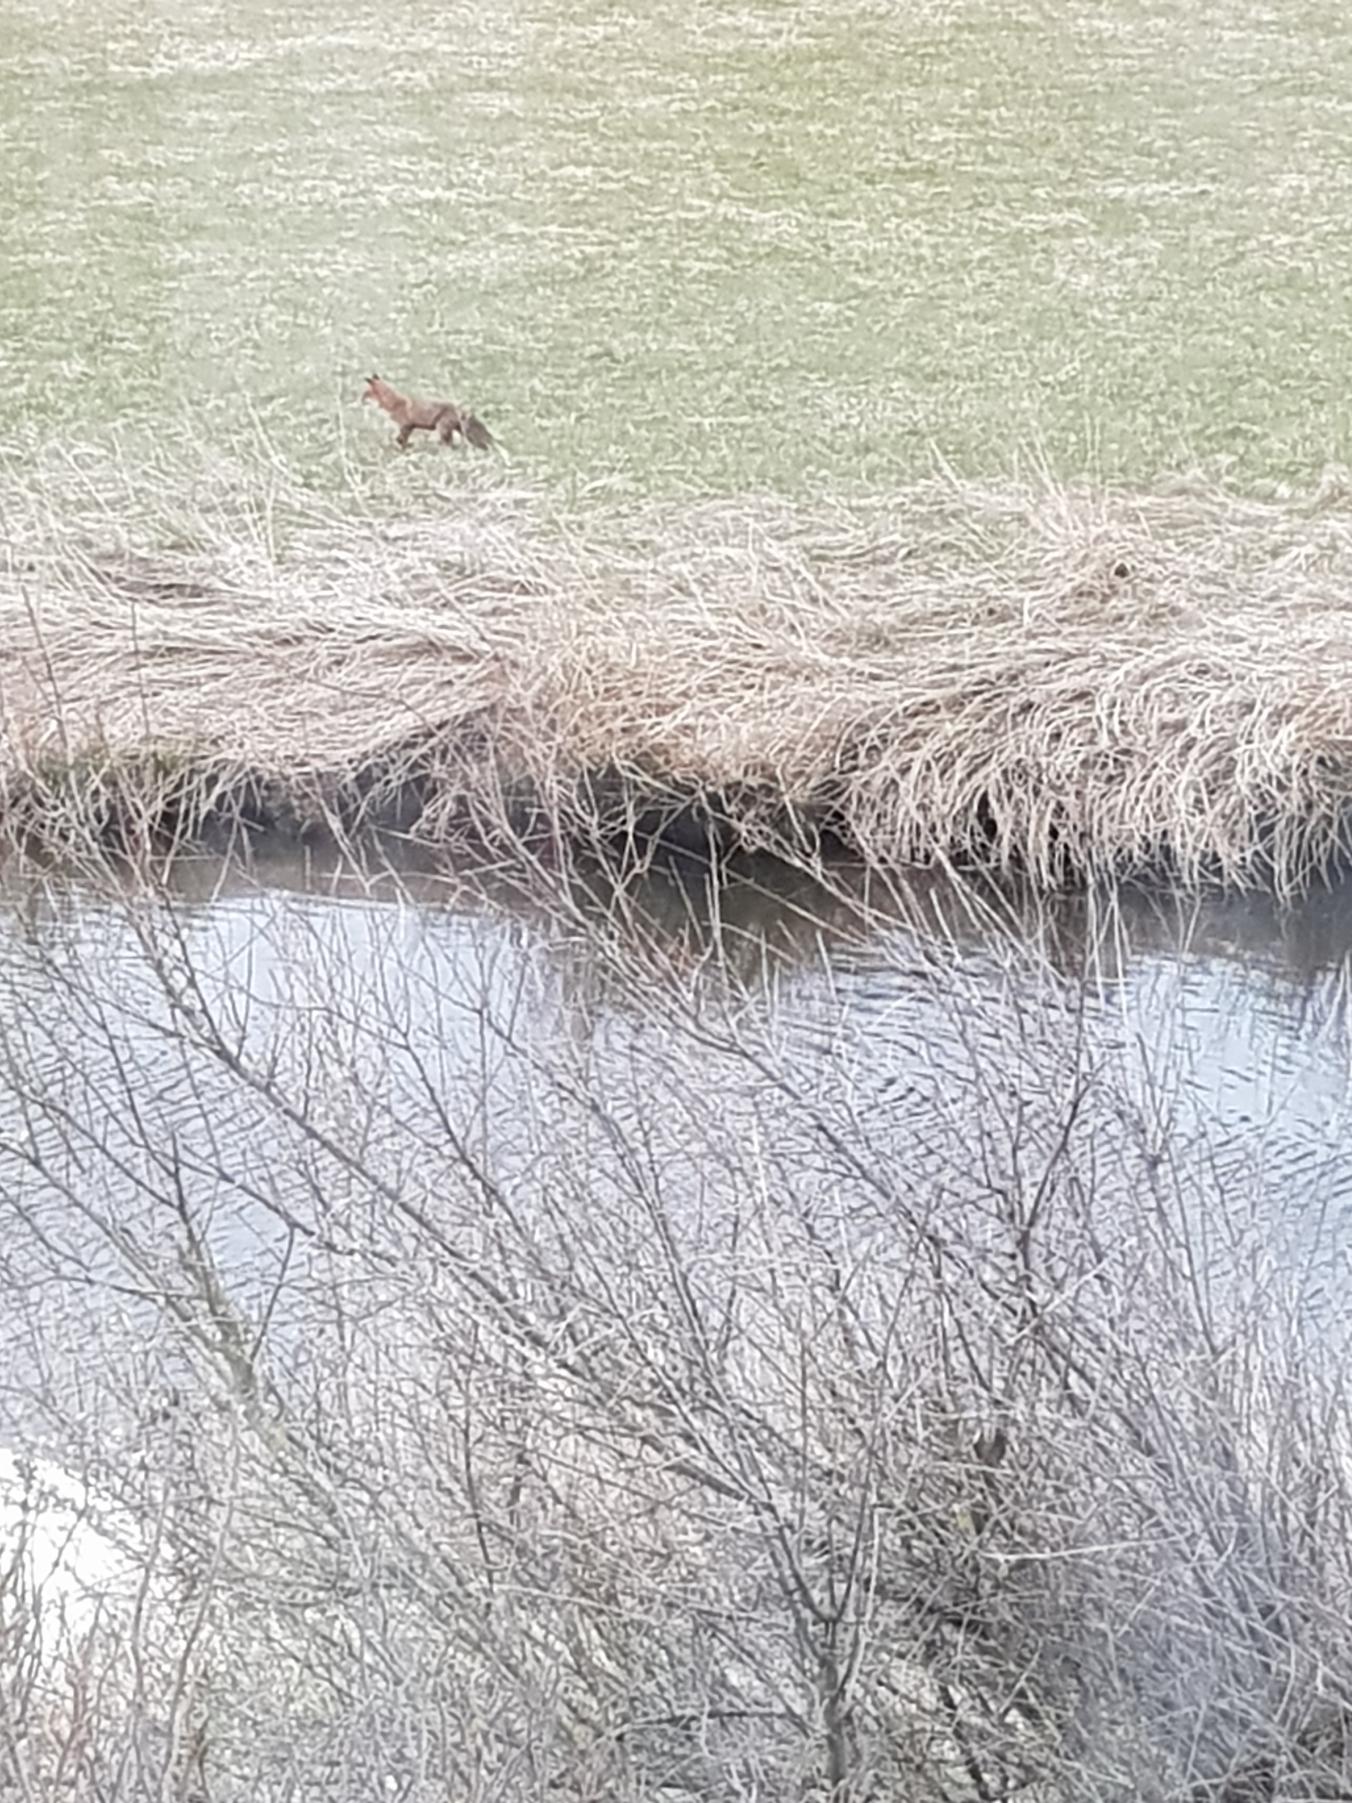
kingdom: Animalia
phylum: Chordata
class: Mammalia
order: Carnivora
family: Canidae
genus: Vulpes
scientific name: Vulpes vulpes
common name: Ræv
